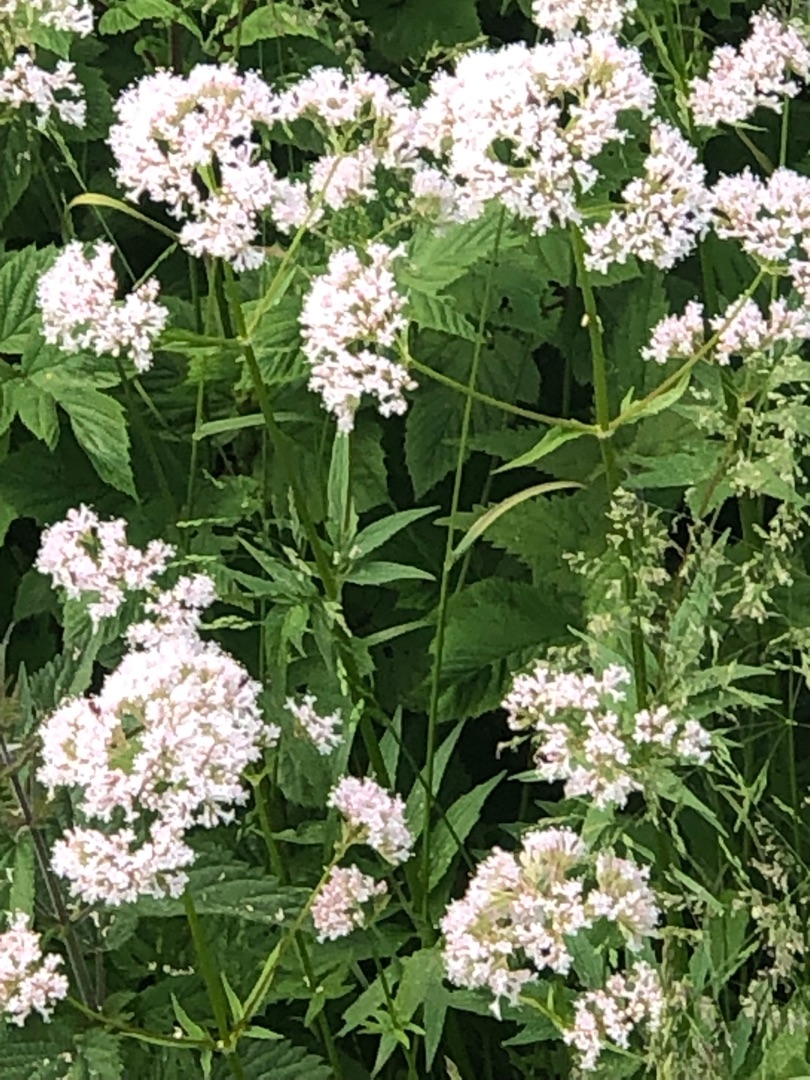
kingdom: Plantae
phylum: Tracheophyta
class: Magnoliopsida
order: Dipsacales
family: Caprifoliaceae
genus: Valeriana
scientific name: Valeriana sambucifolia
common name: Hyldebladet baldrian
